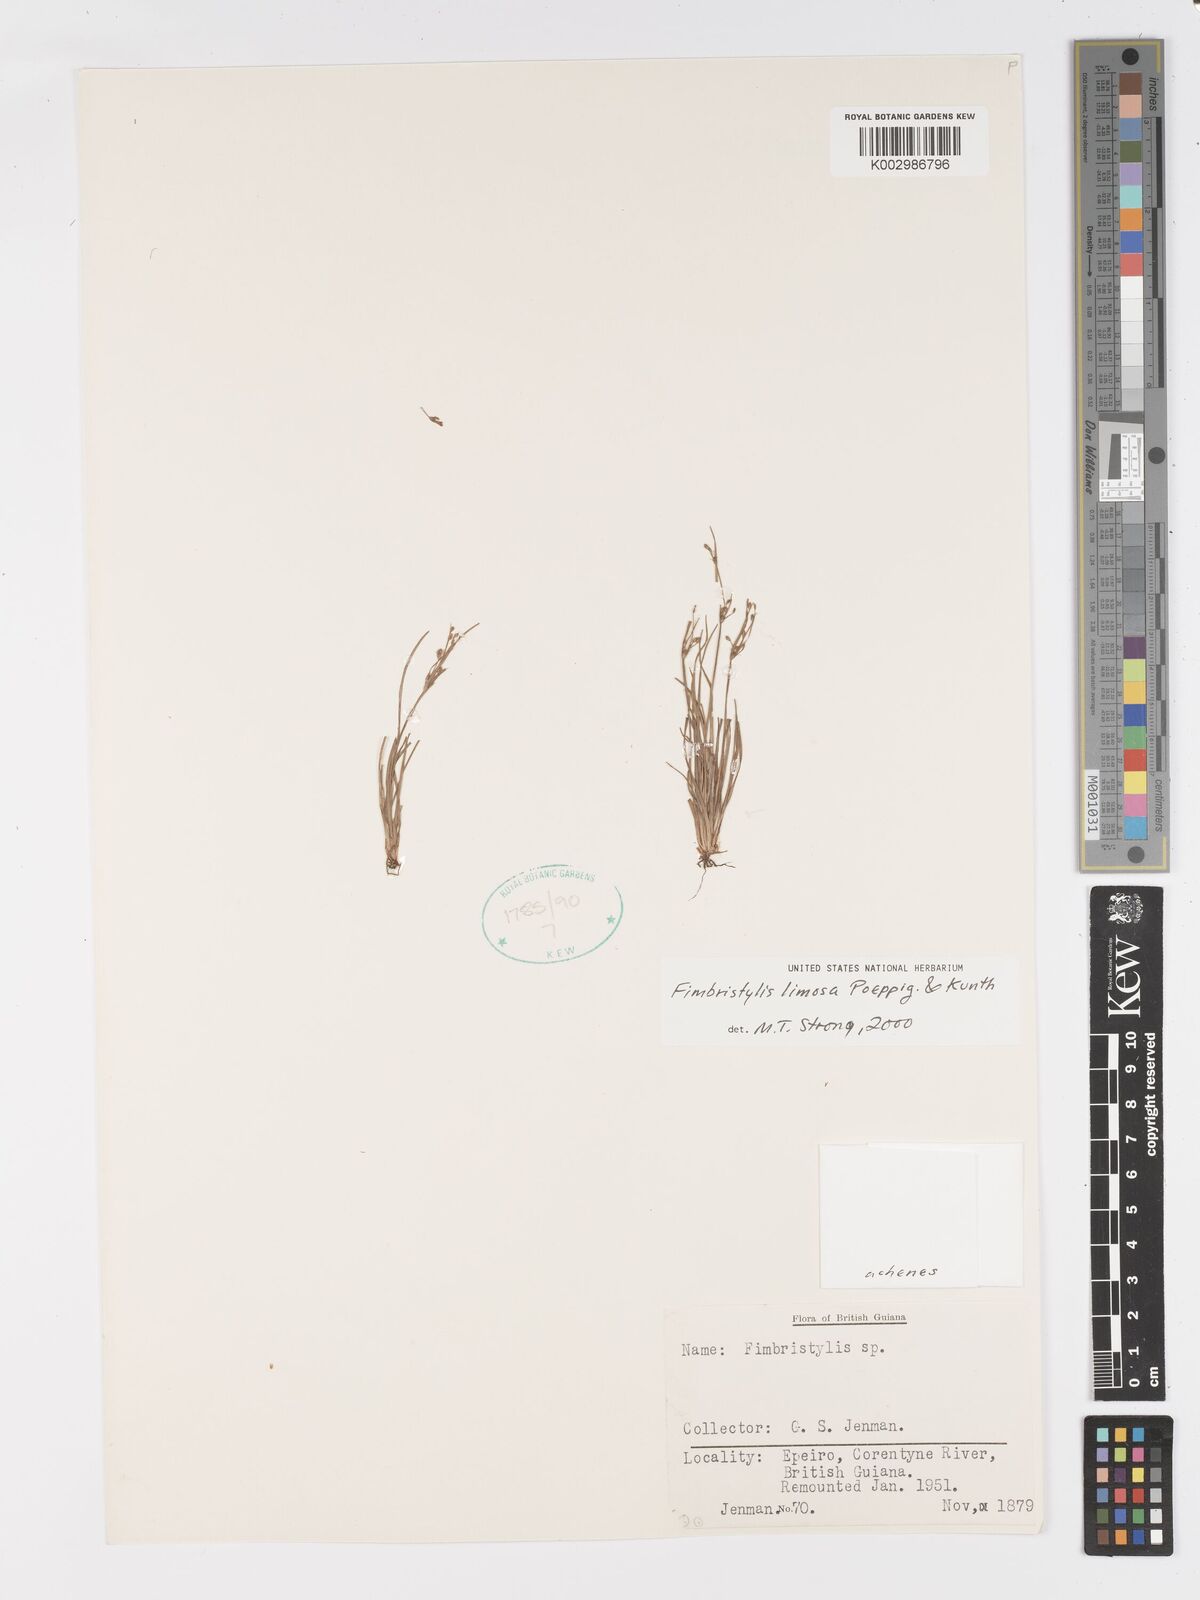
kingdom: Plantae
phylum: Tracheophyta
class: Liliopsida
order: Poales
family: Cyperaceae
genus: Fimbristylis
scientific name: Fimbristylis limosa
